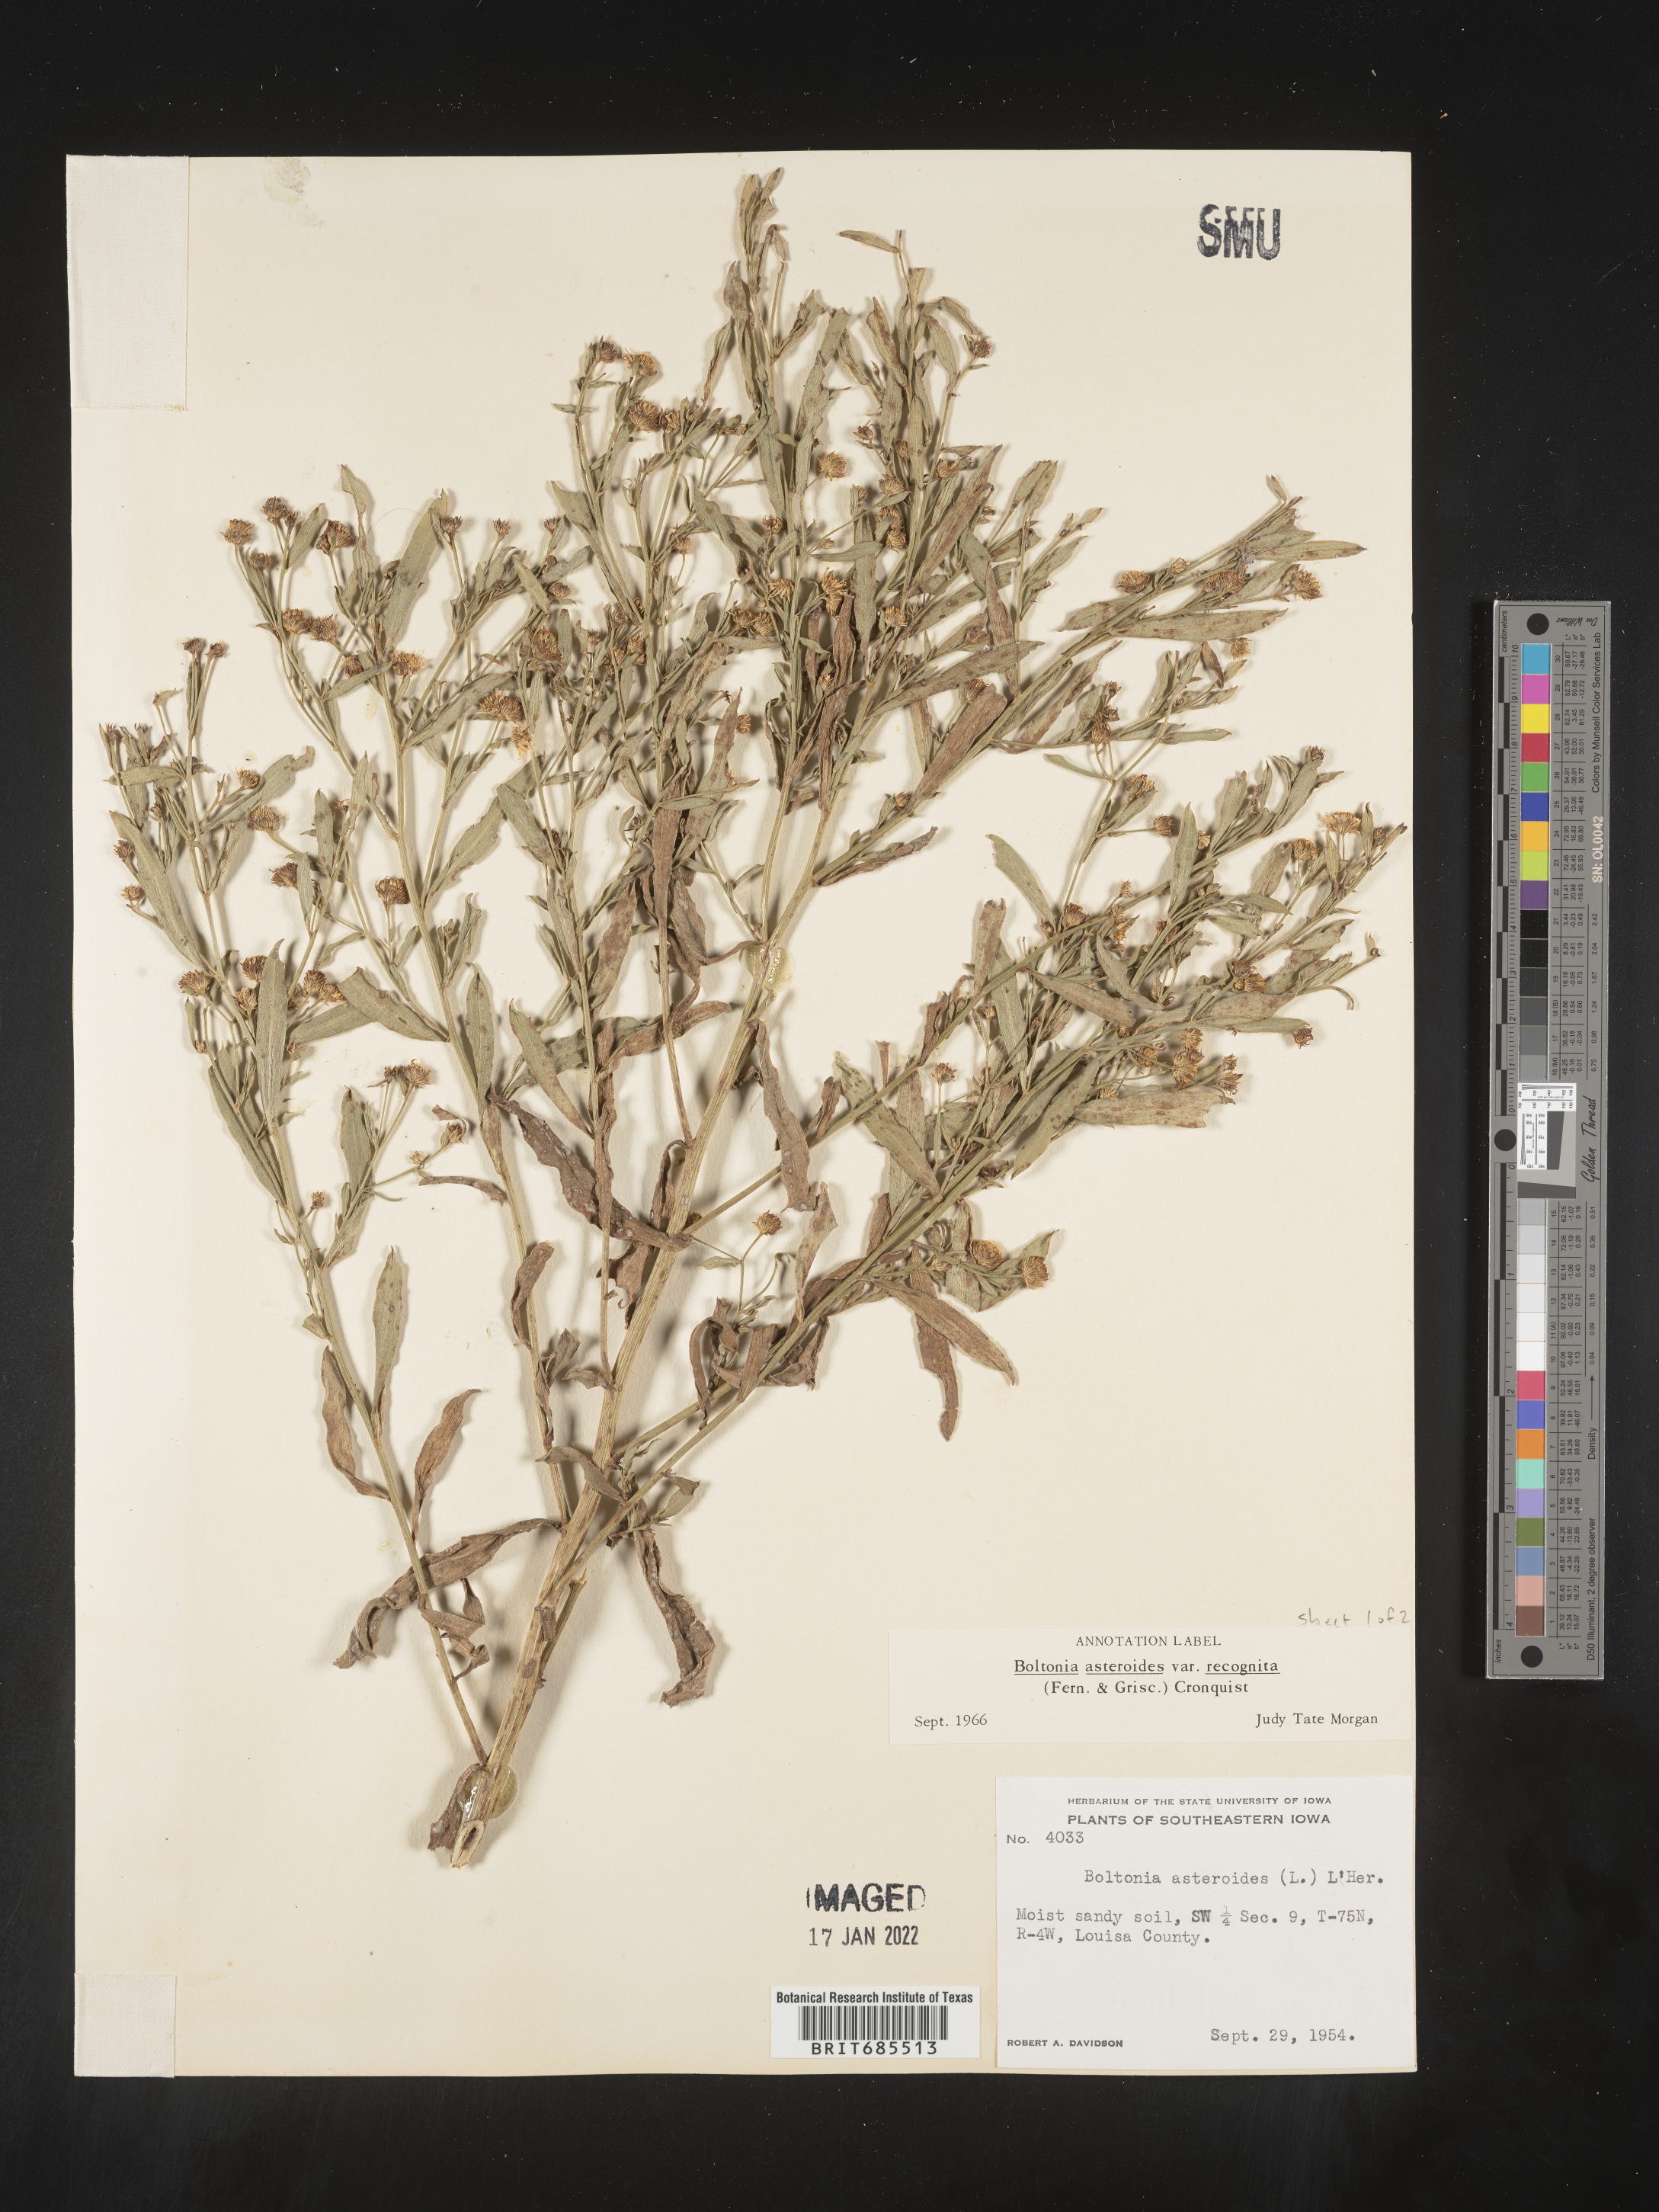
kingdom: Plantae
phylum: Tracheophyta
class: Magnoliopsida
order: Asterales
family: Asteraceae
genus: Boltonia
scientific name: Boltonia asteroides
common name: False chamomile
